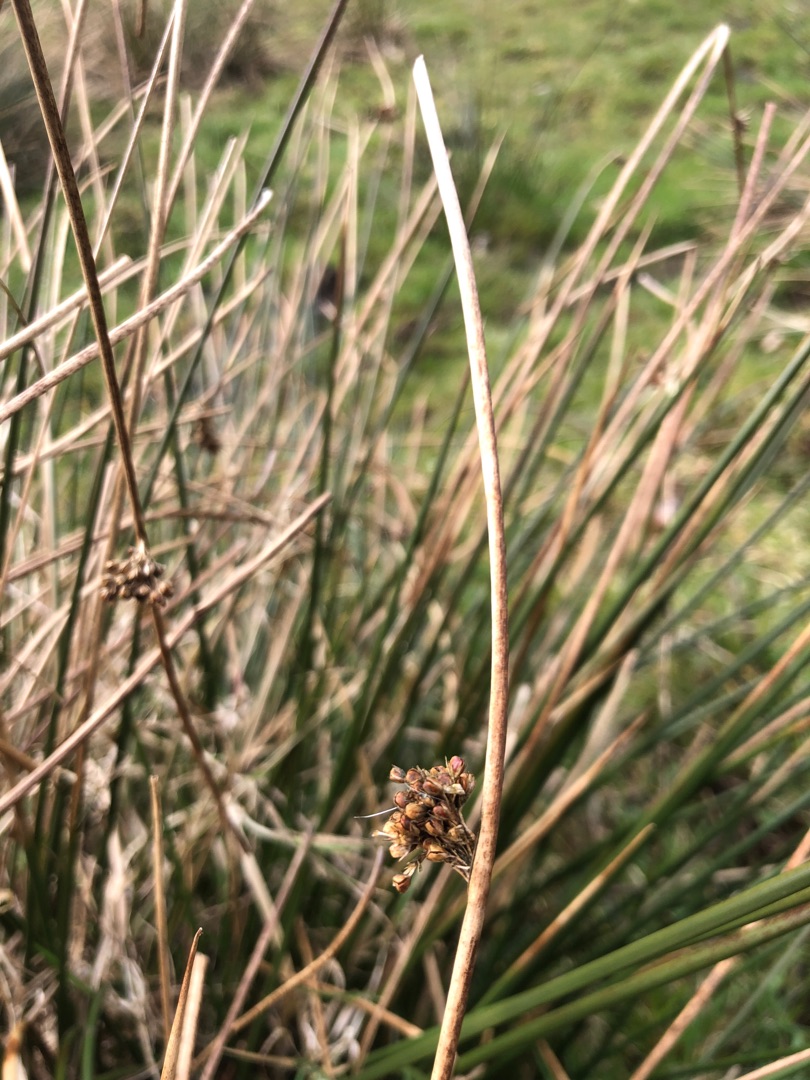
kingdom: Plantae
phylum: Tracheophyta
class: Liliopsida
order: Poales
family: Juncaceae
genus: Juncus
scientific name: Juncus effusus
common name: Lyse-siv
